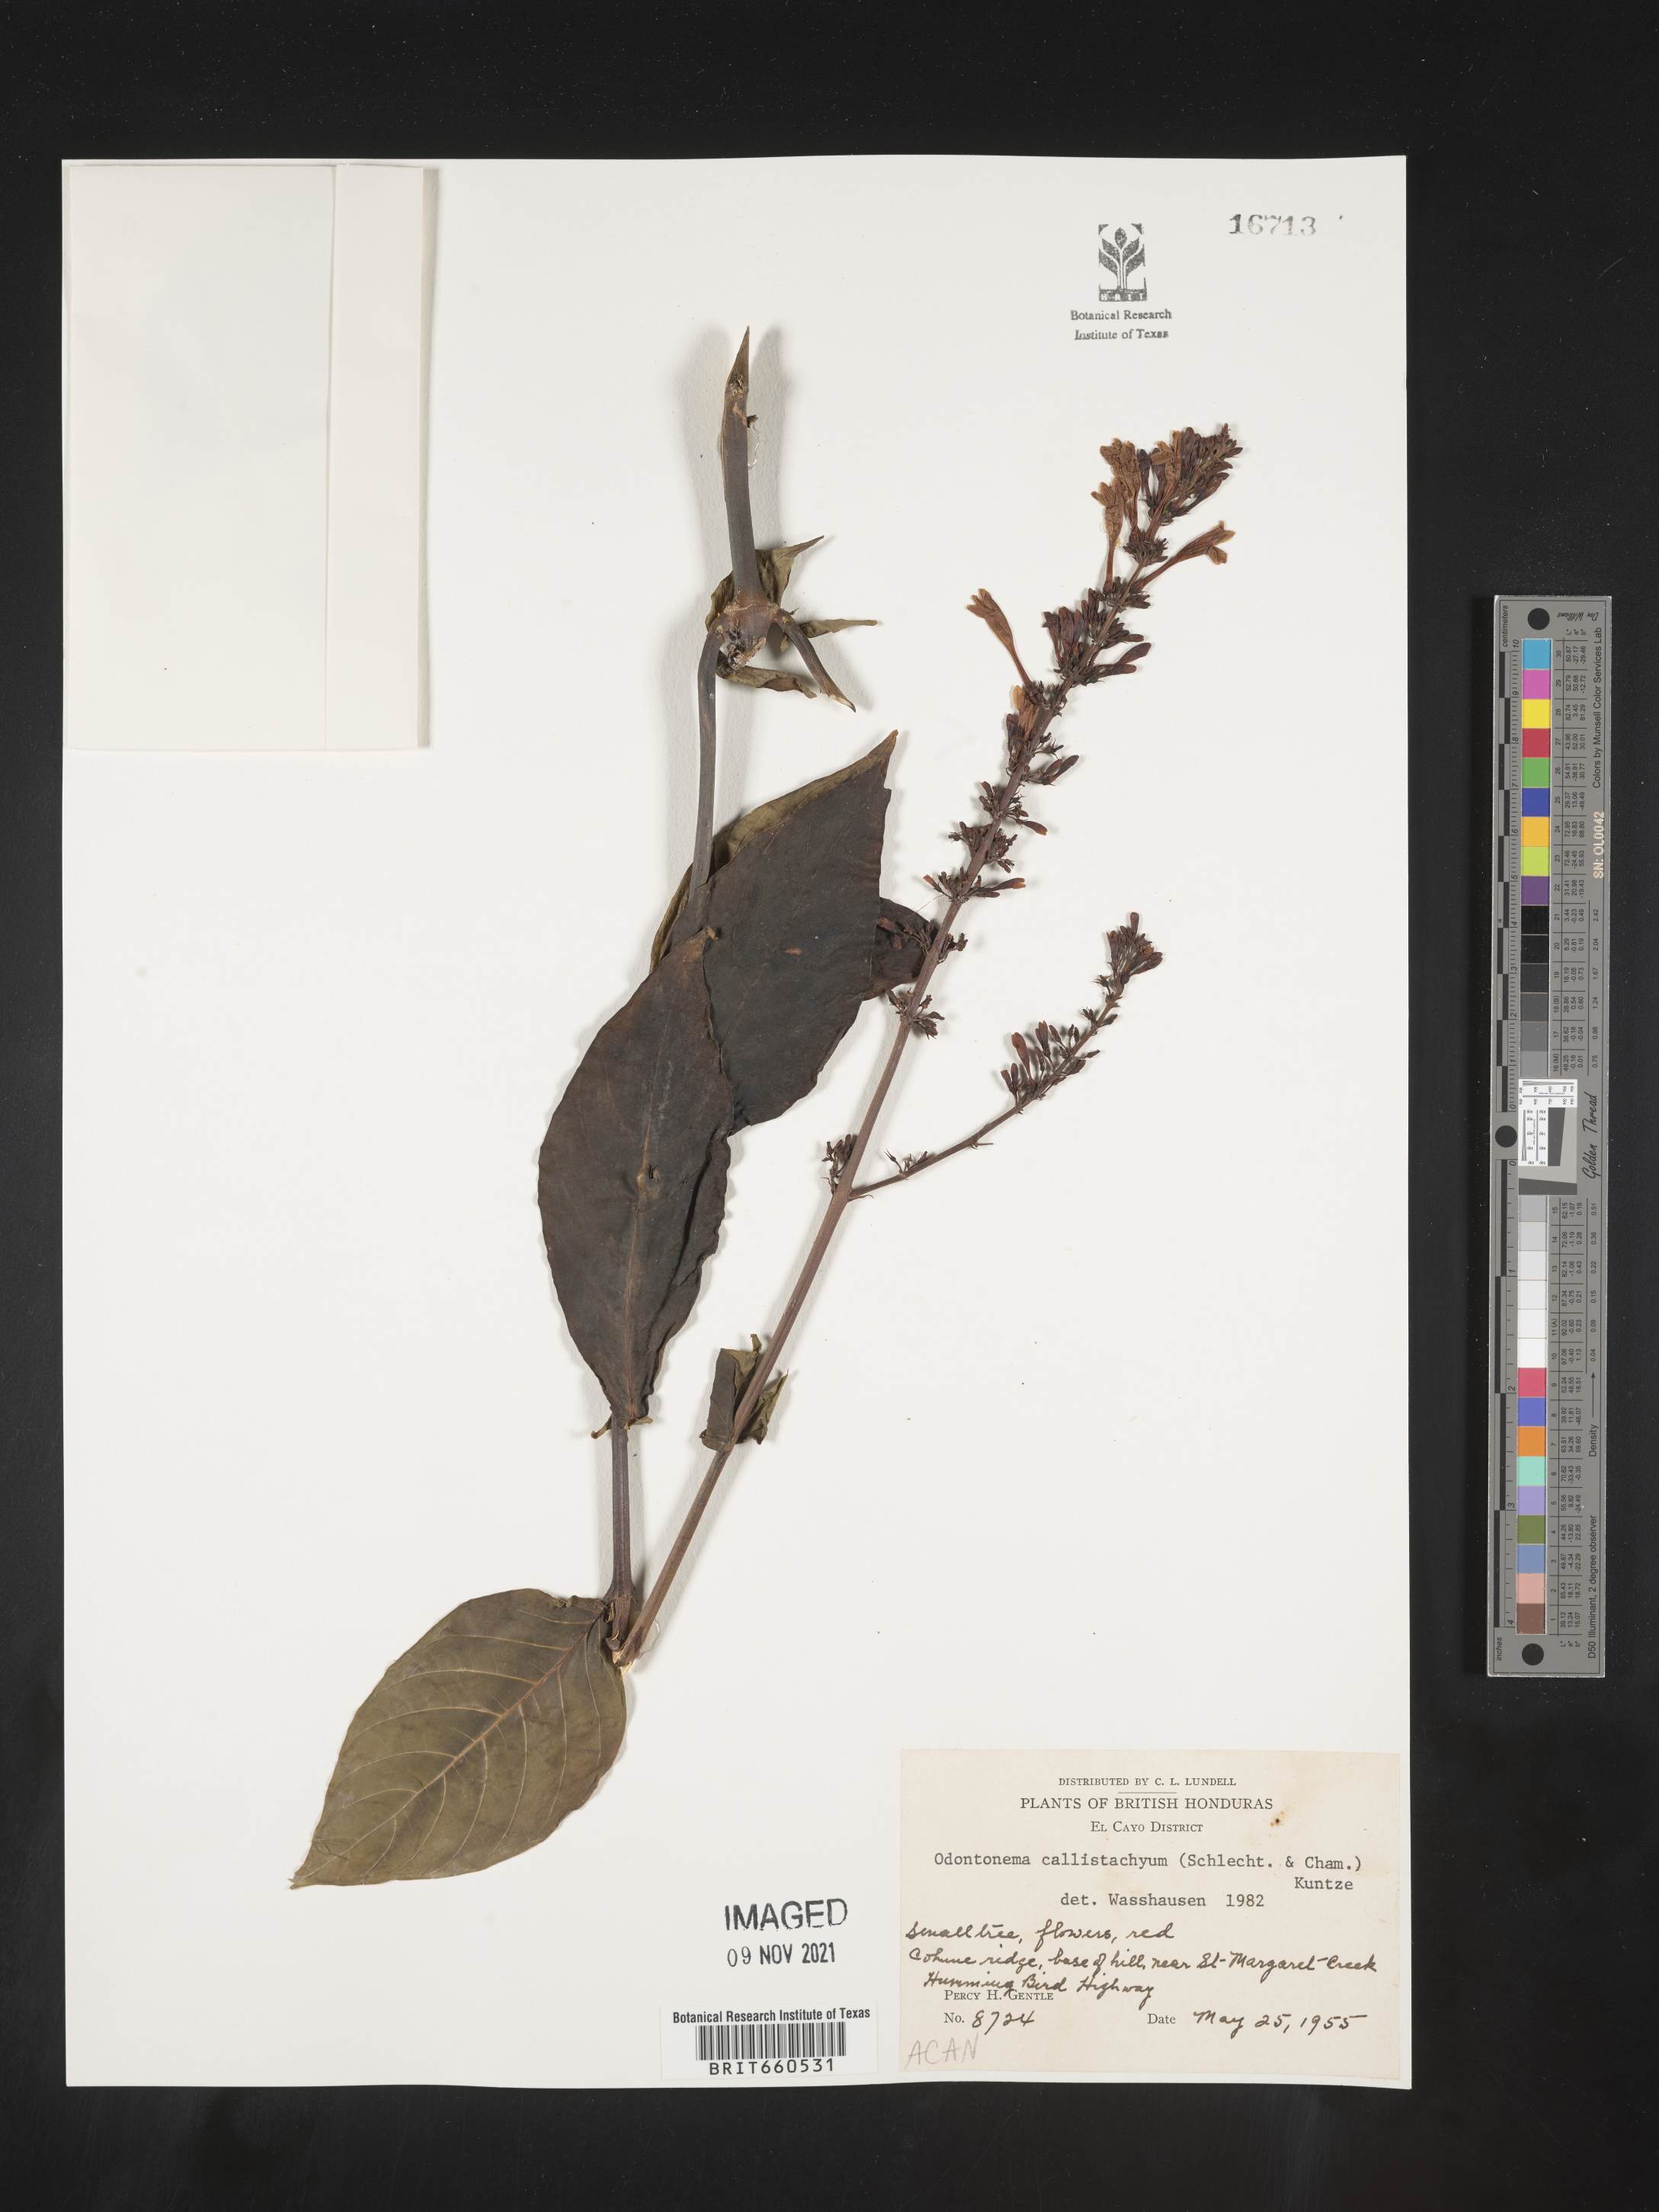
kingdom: Plantae
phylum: Tracheophyta
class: Magnoliopsida
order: Lamiales
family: Acanthaceae
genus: Odontonema
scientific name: Odontonema
